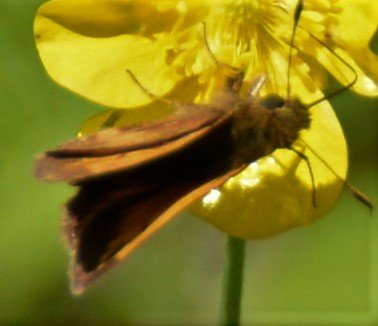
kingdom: Animalia
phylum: Arthropoda
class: Insecta
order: Lepidoptera
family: Hesperiidae
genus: Lon
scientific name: Lon hobomok
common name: Hobomok Skipper
